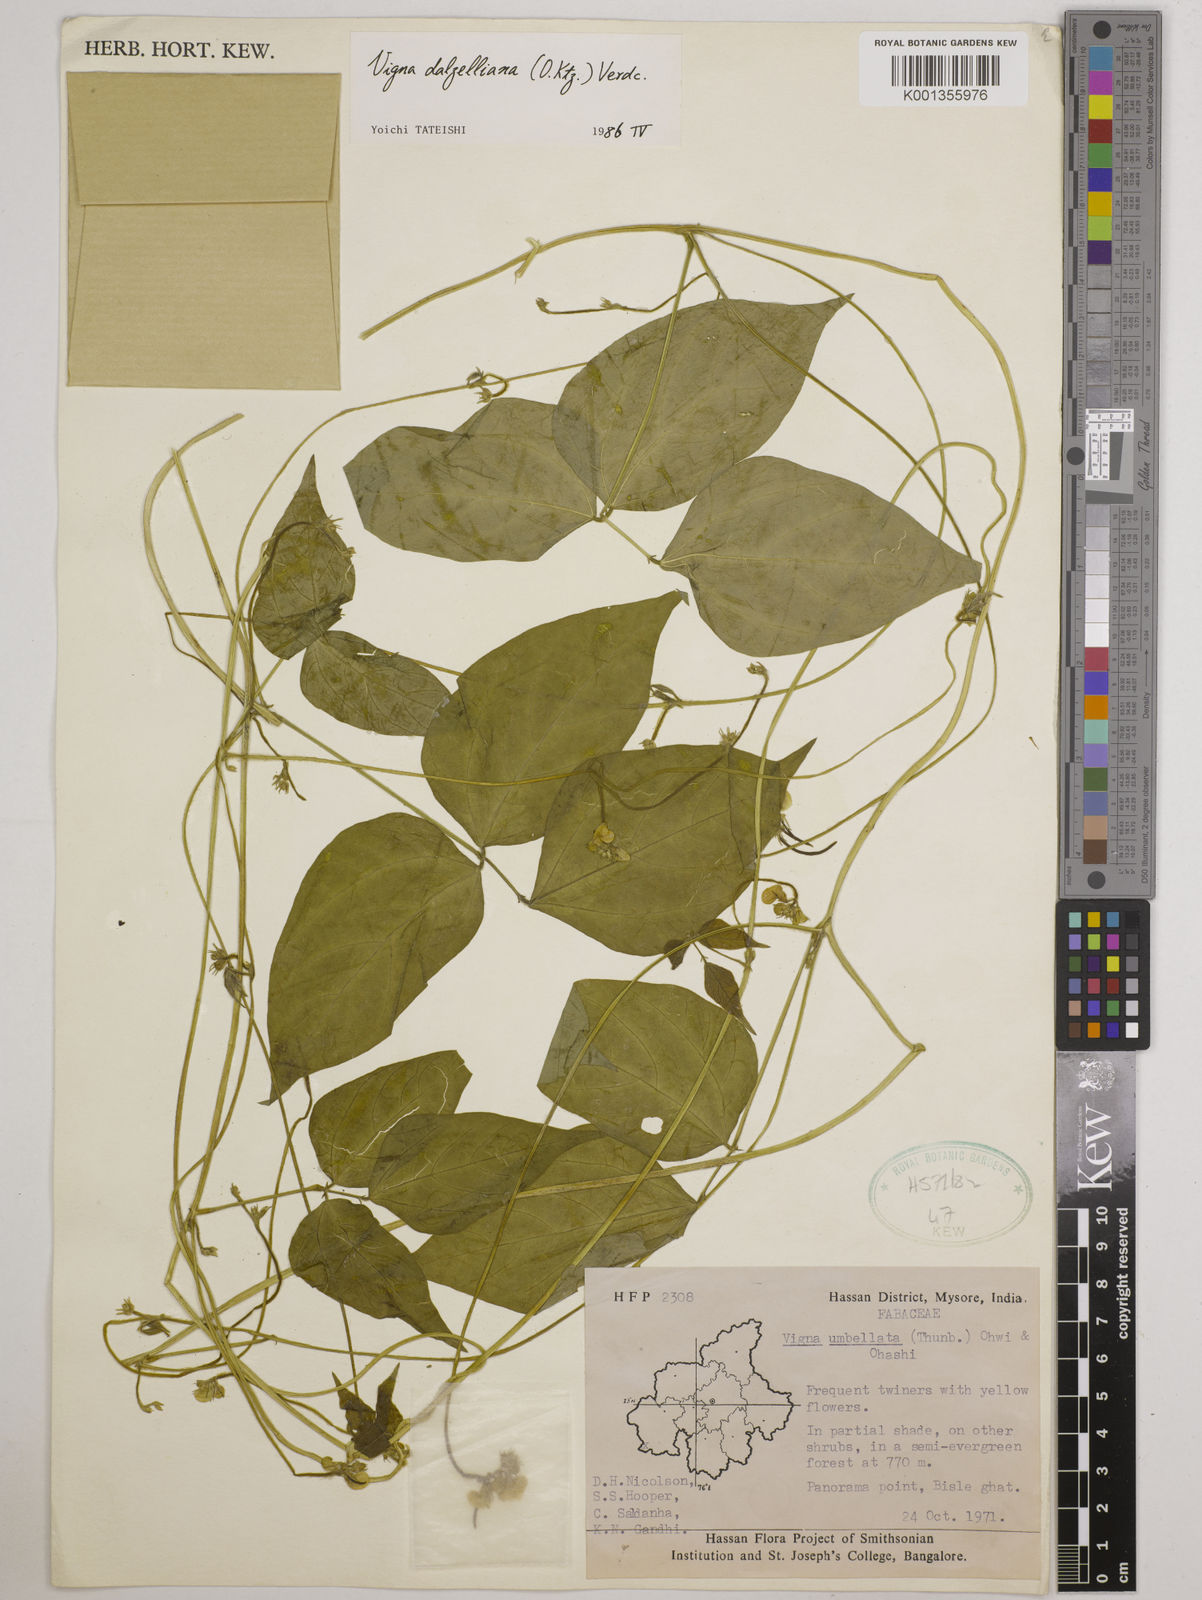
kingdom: Plantae
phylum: Tracheophyta
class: Magnoliopsida
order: Fabales
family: Fabaceae
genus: Vigna
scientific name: Vigna dalzelliana
